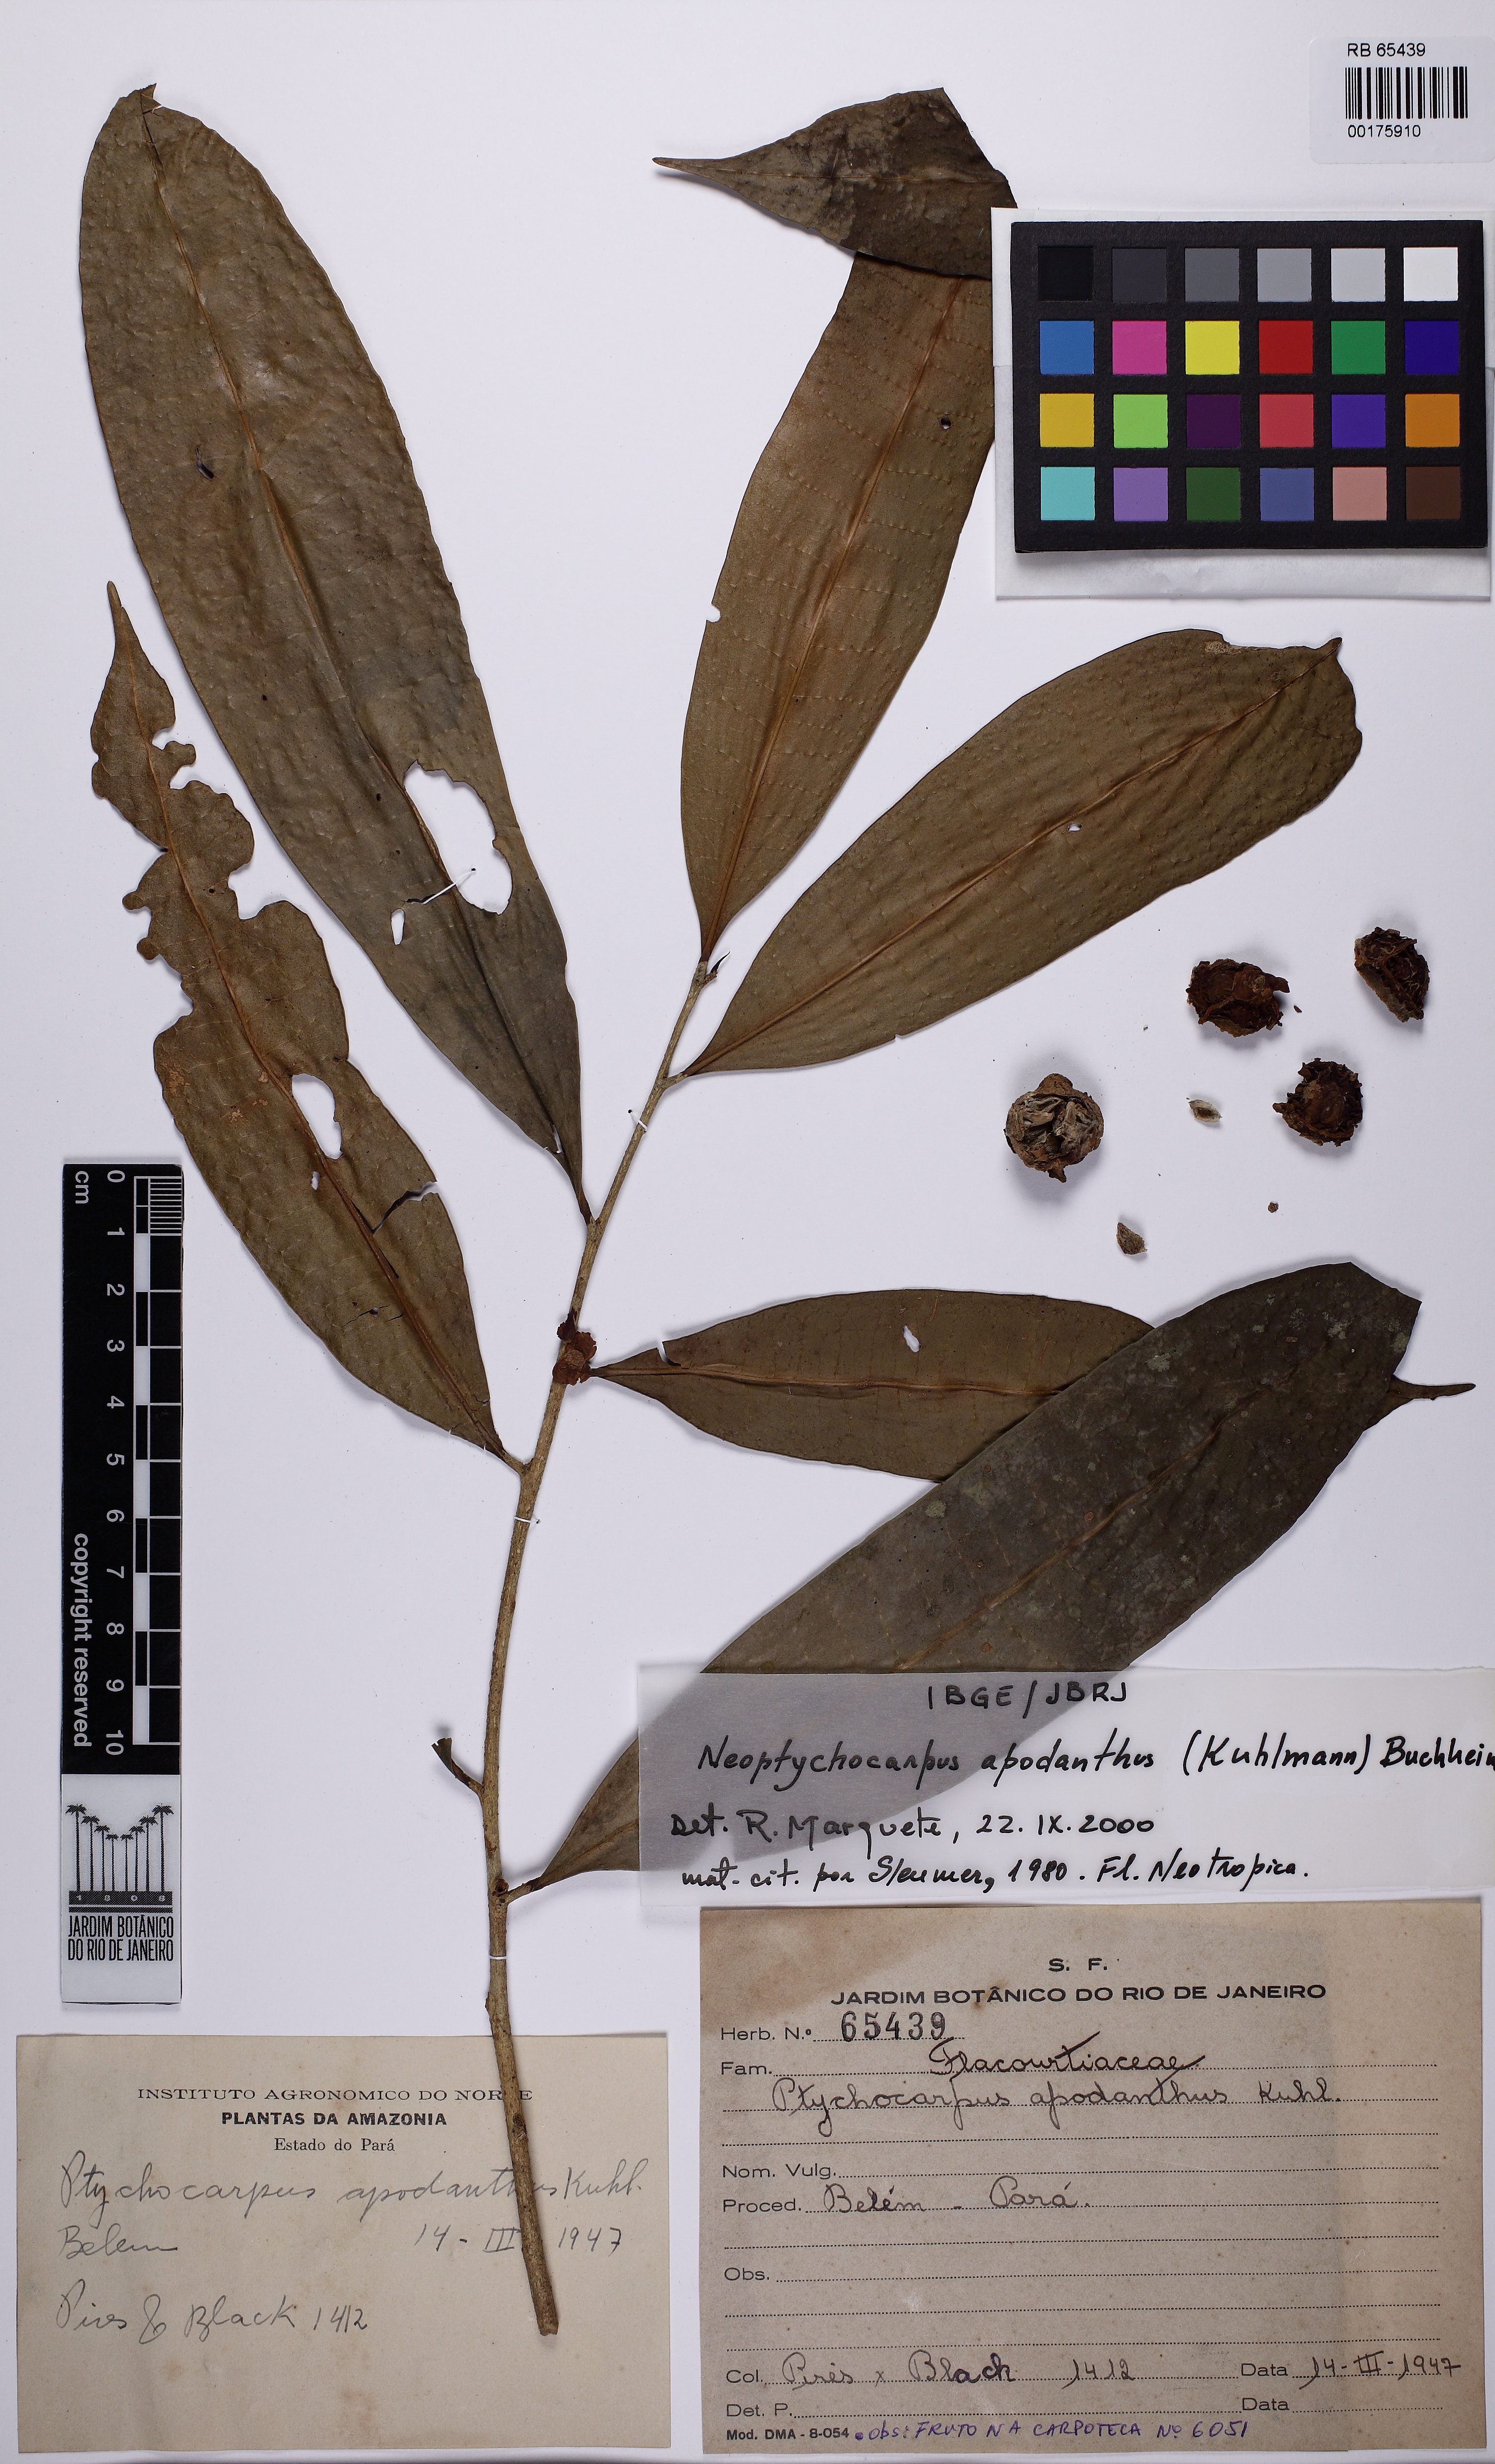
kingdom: Plantae
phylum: Tracheophyta
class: Magnoliopsida
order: Malpighiales
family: Salicaceae
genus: Casearia
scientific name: Casearia apodantha
